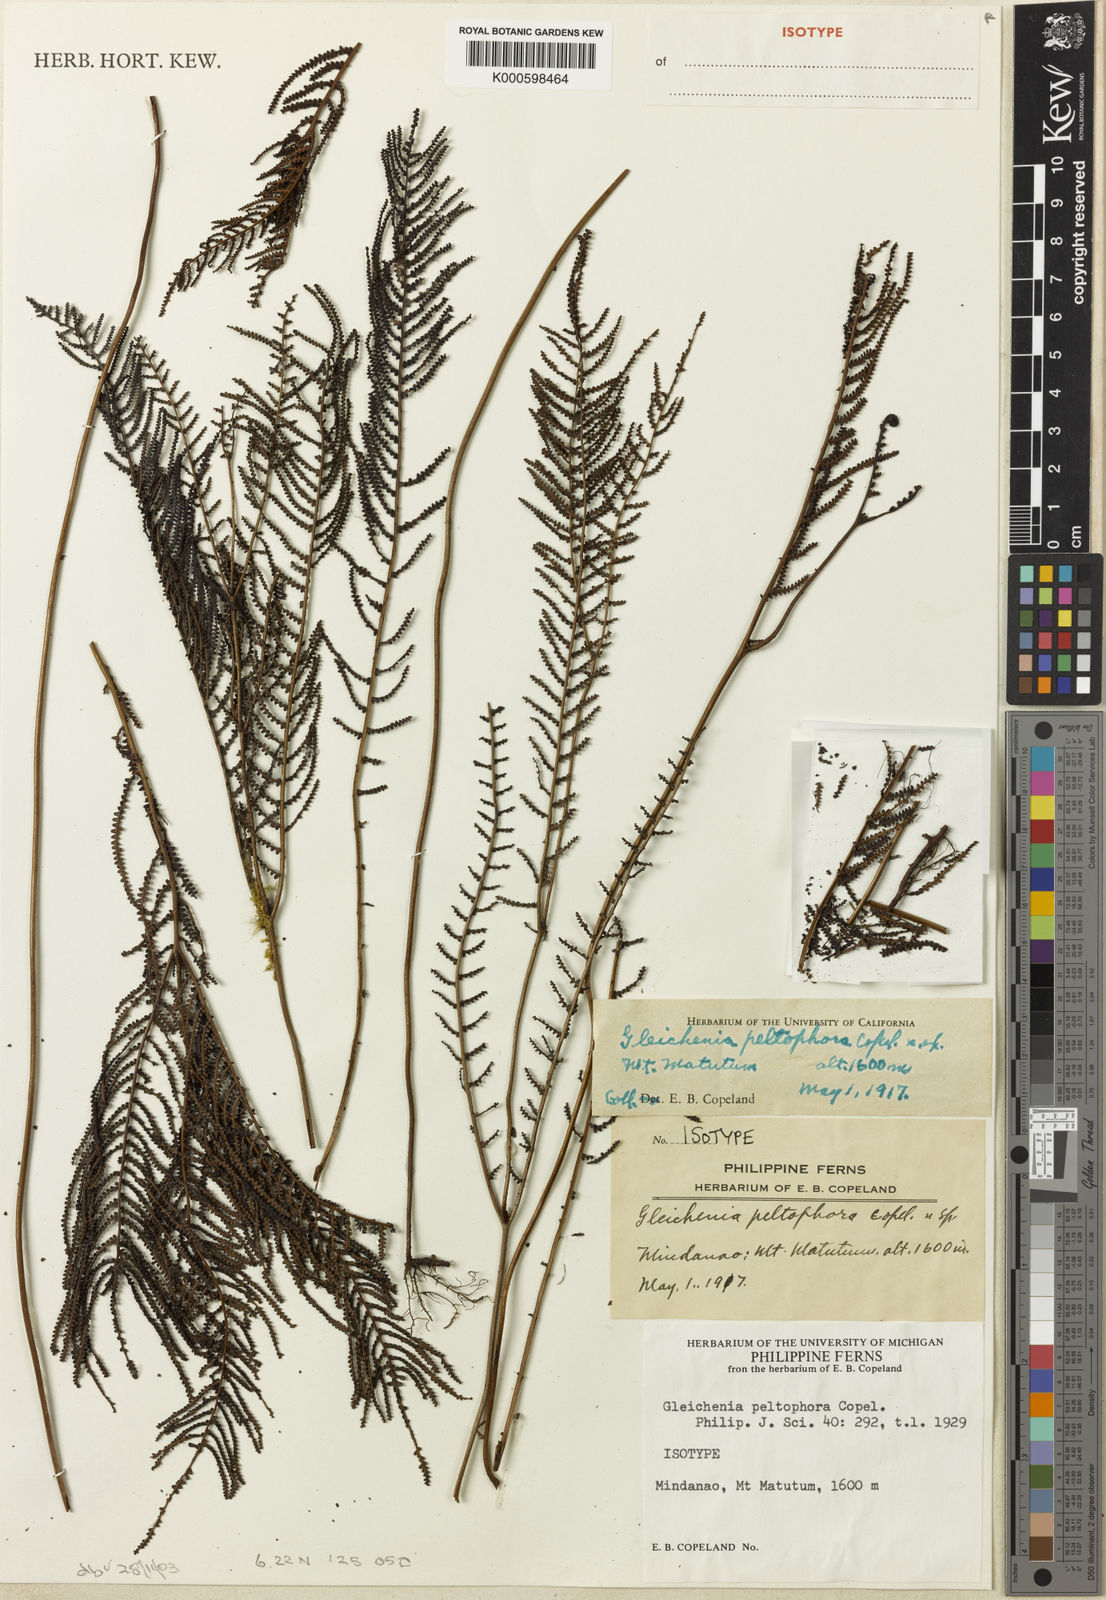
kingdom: Plantae
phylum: Tracheophyta
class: Polypodiopsida
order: Gleicheniales
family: Gleicheniaceae
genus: Gleichenia
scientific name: Gleichenia peltophora
